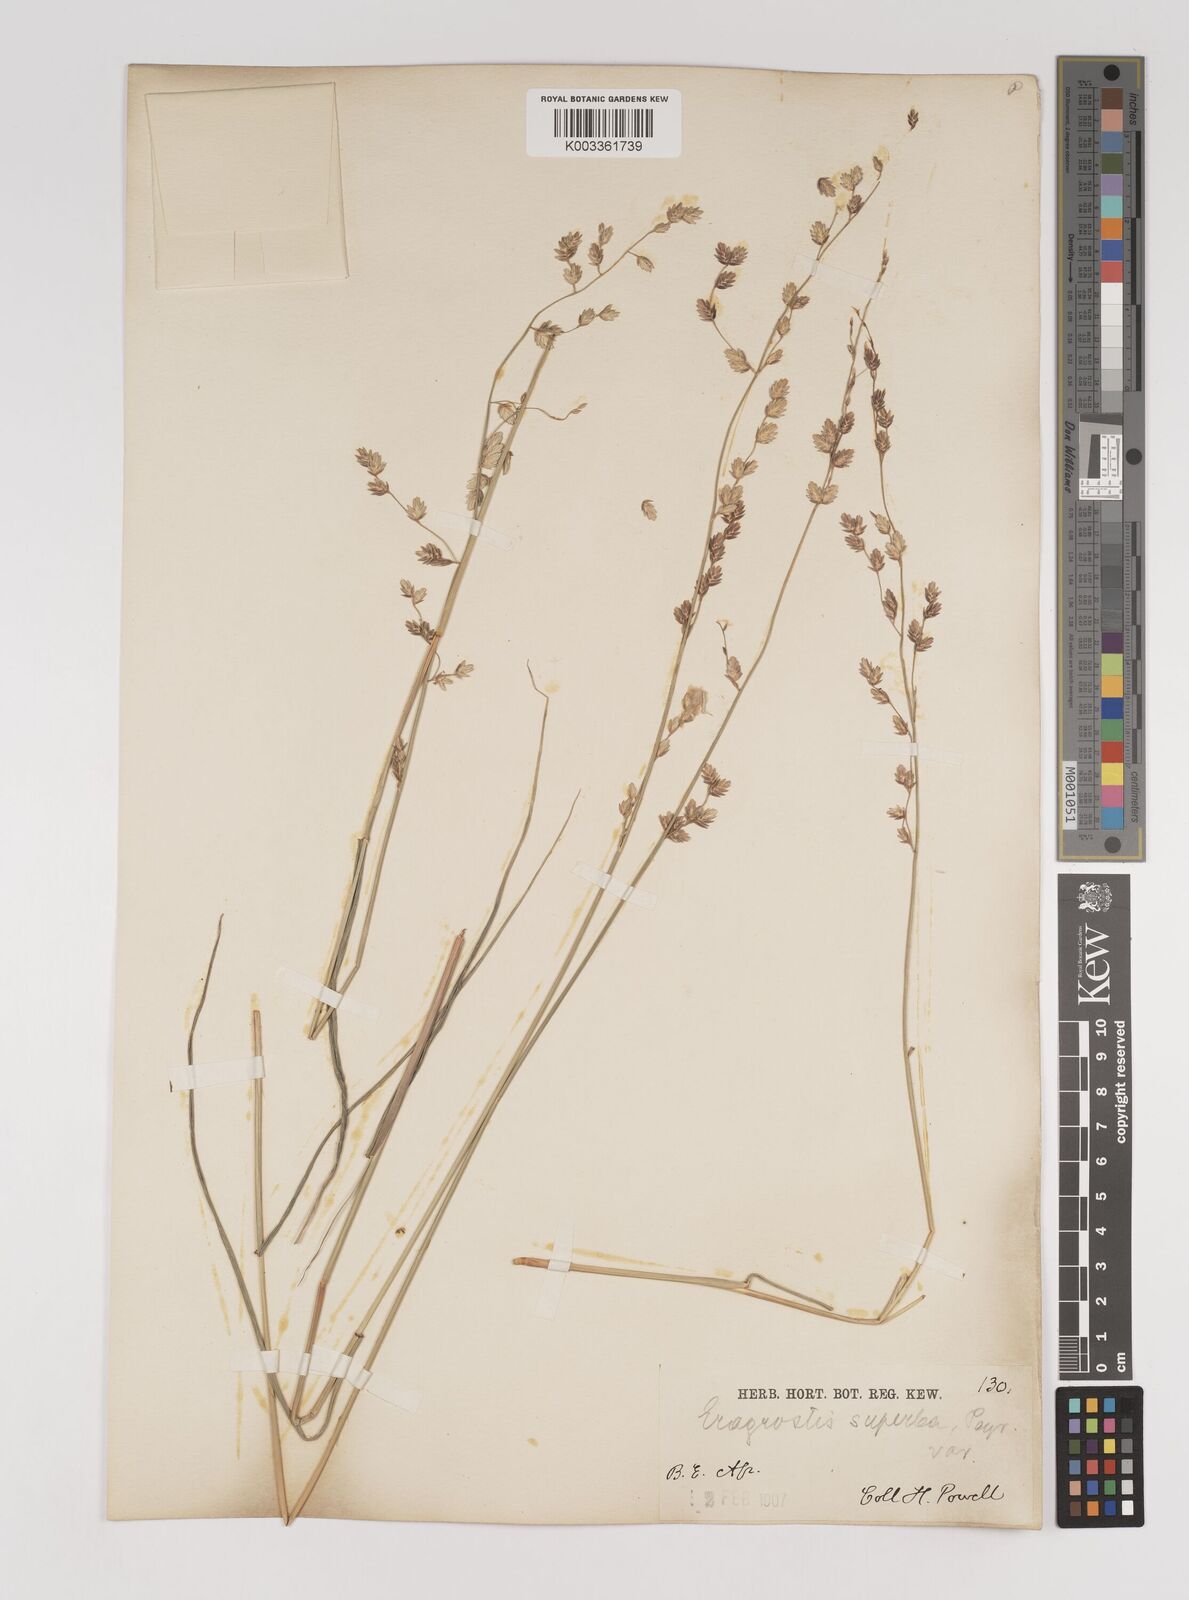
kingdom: Plantae
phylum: Tracheophyta
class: Liliopsida
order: Poales
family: Poaceae
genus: Eragrostis
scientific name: Eragrostis superba
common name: Wilman lovegrass
